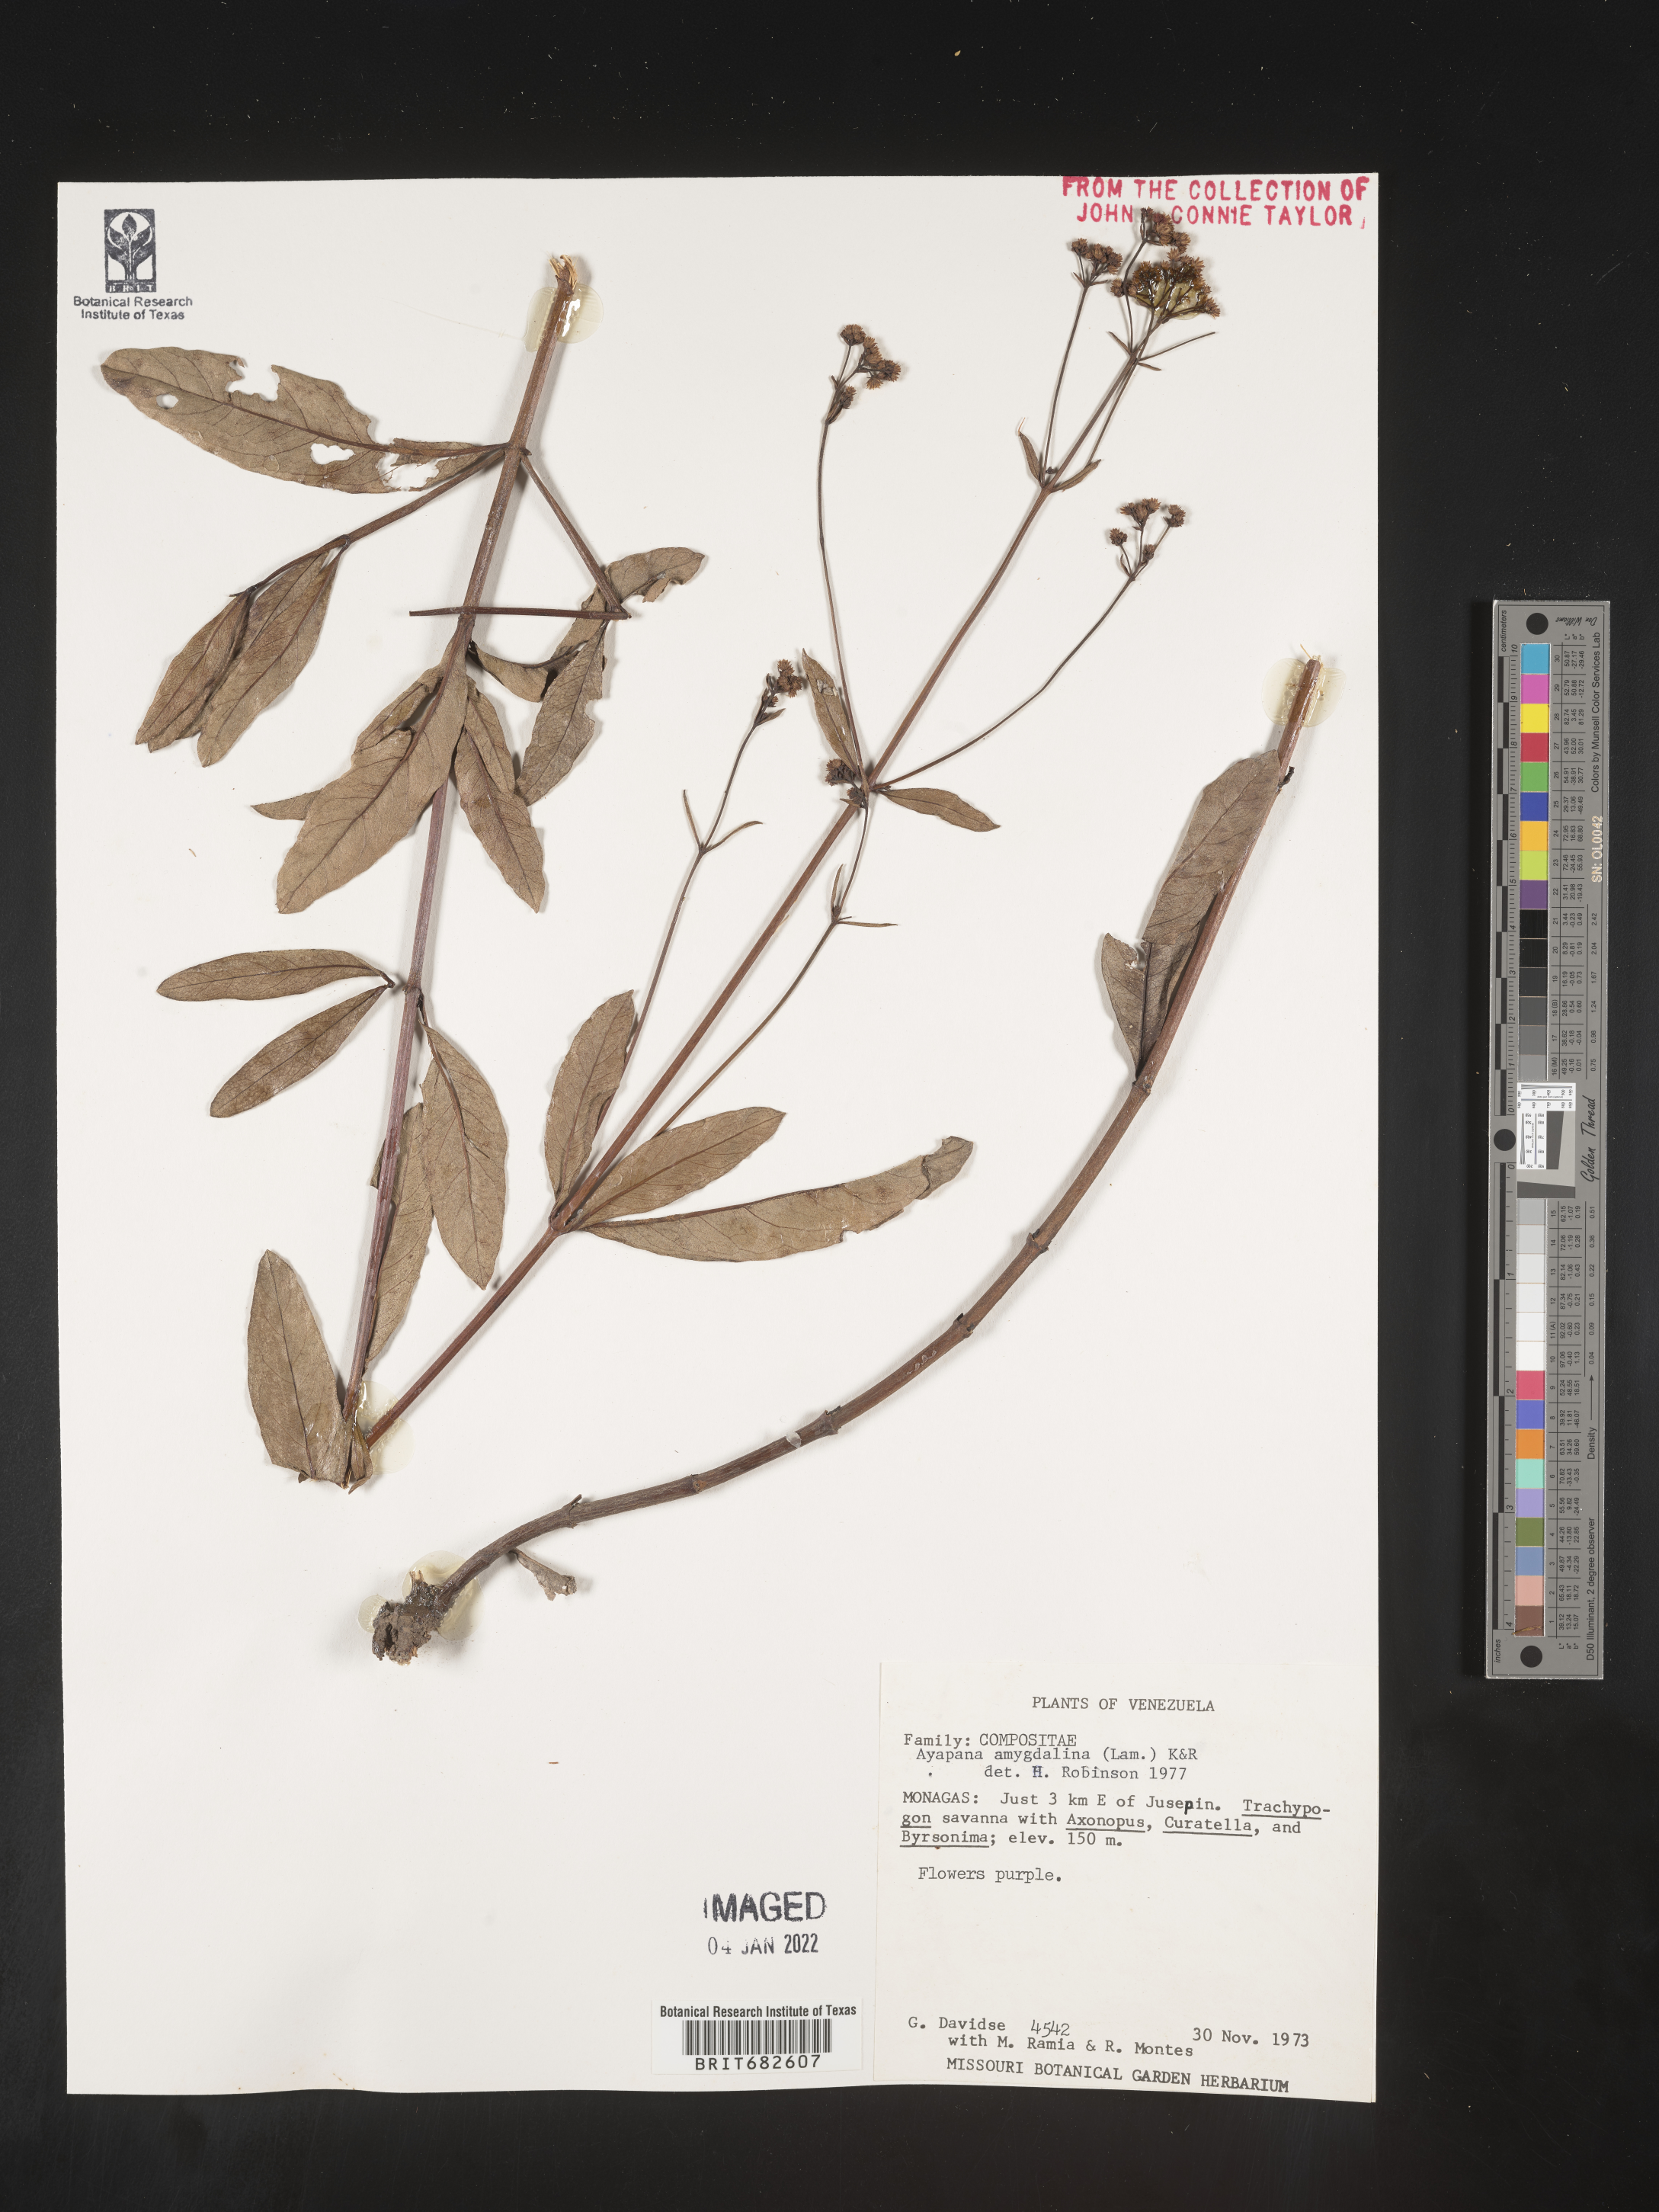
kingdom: Plantae
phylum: Tracheophyta
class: Magnoliopsida
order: Asterales
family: Asteraceae
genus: Ayapana
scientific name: Ayapana
